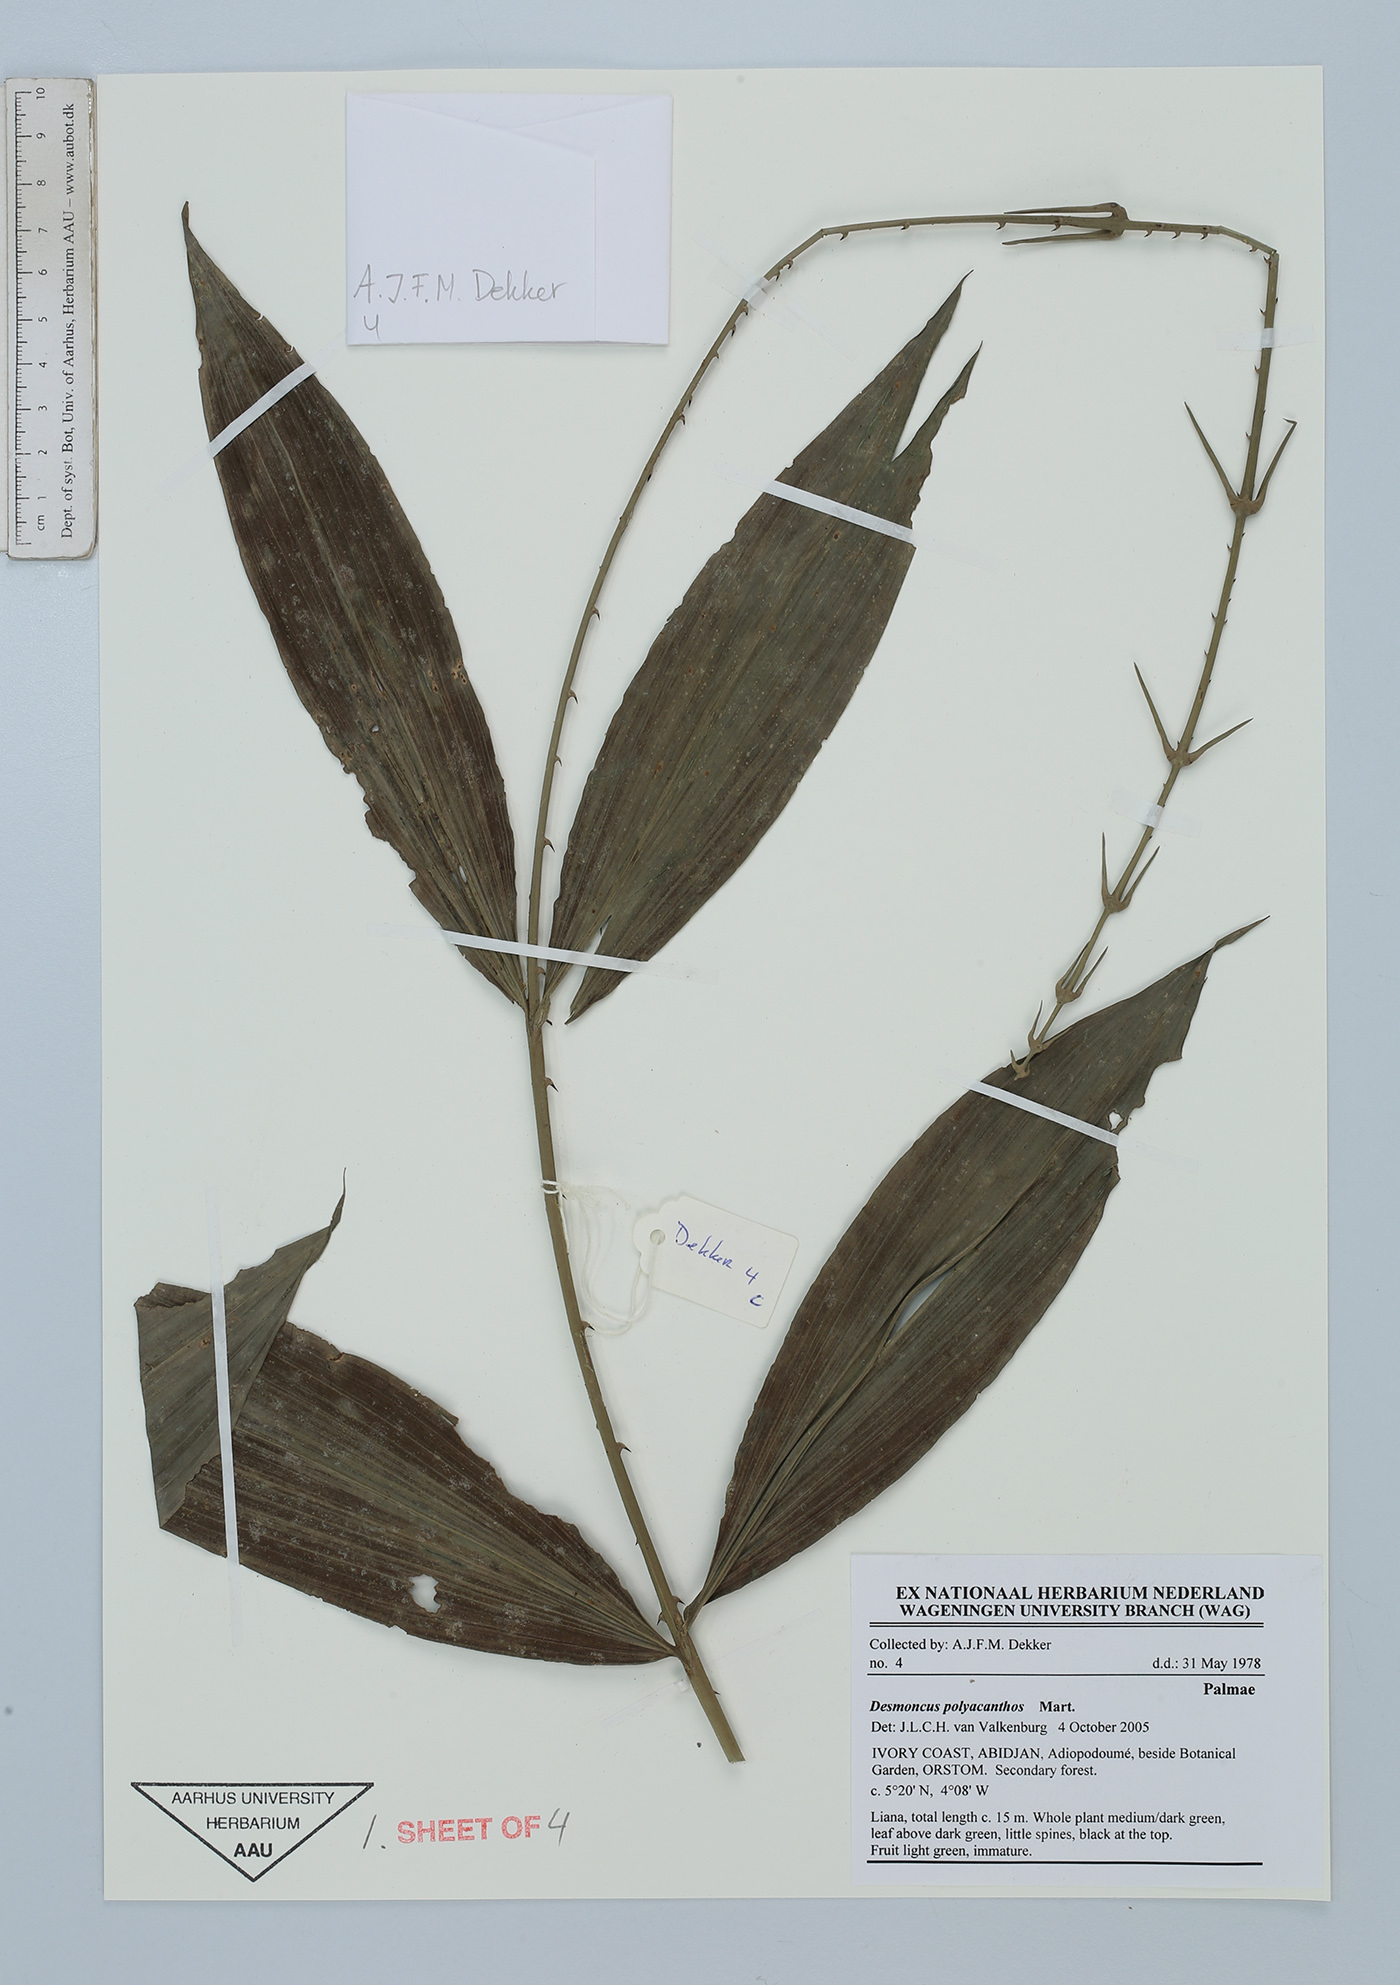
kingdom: Plantae
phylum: Tracheophyta
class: Liliopsida
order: Arecales
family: Arecaceae
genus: Desmoncus
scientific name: Desmoncus polyacanthos
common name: Suriname bramble palm
